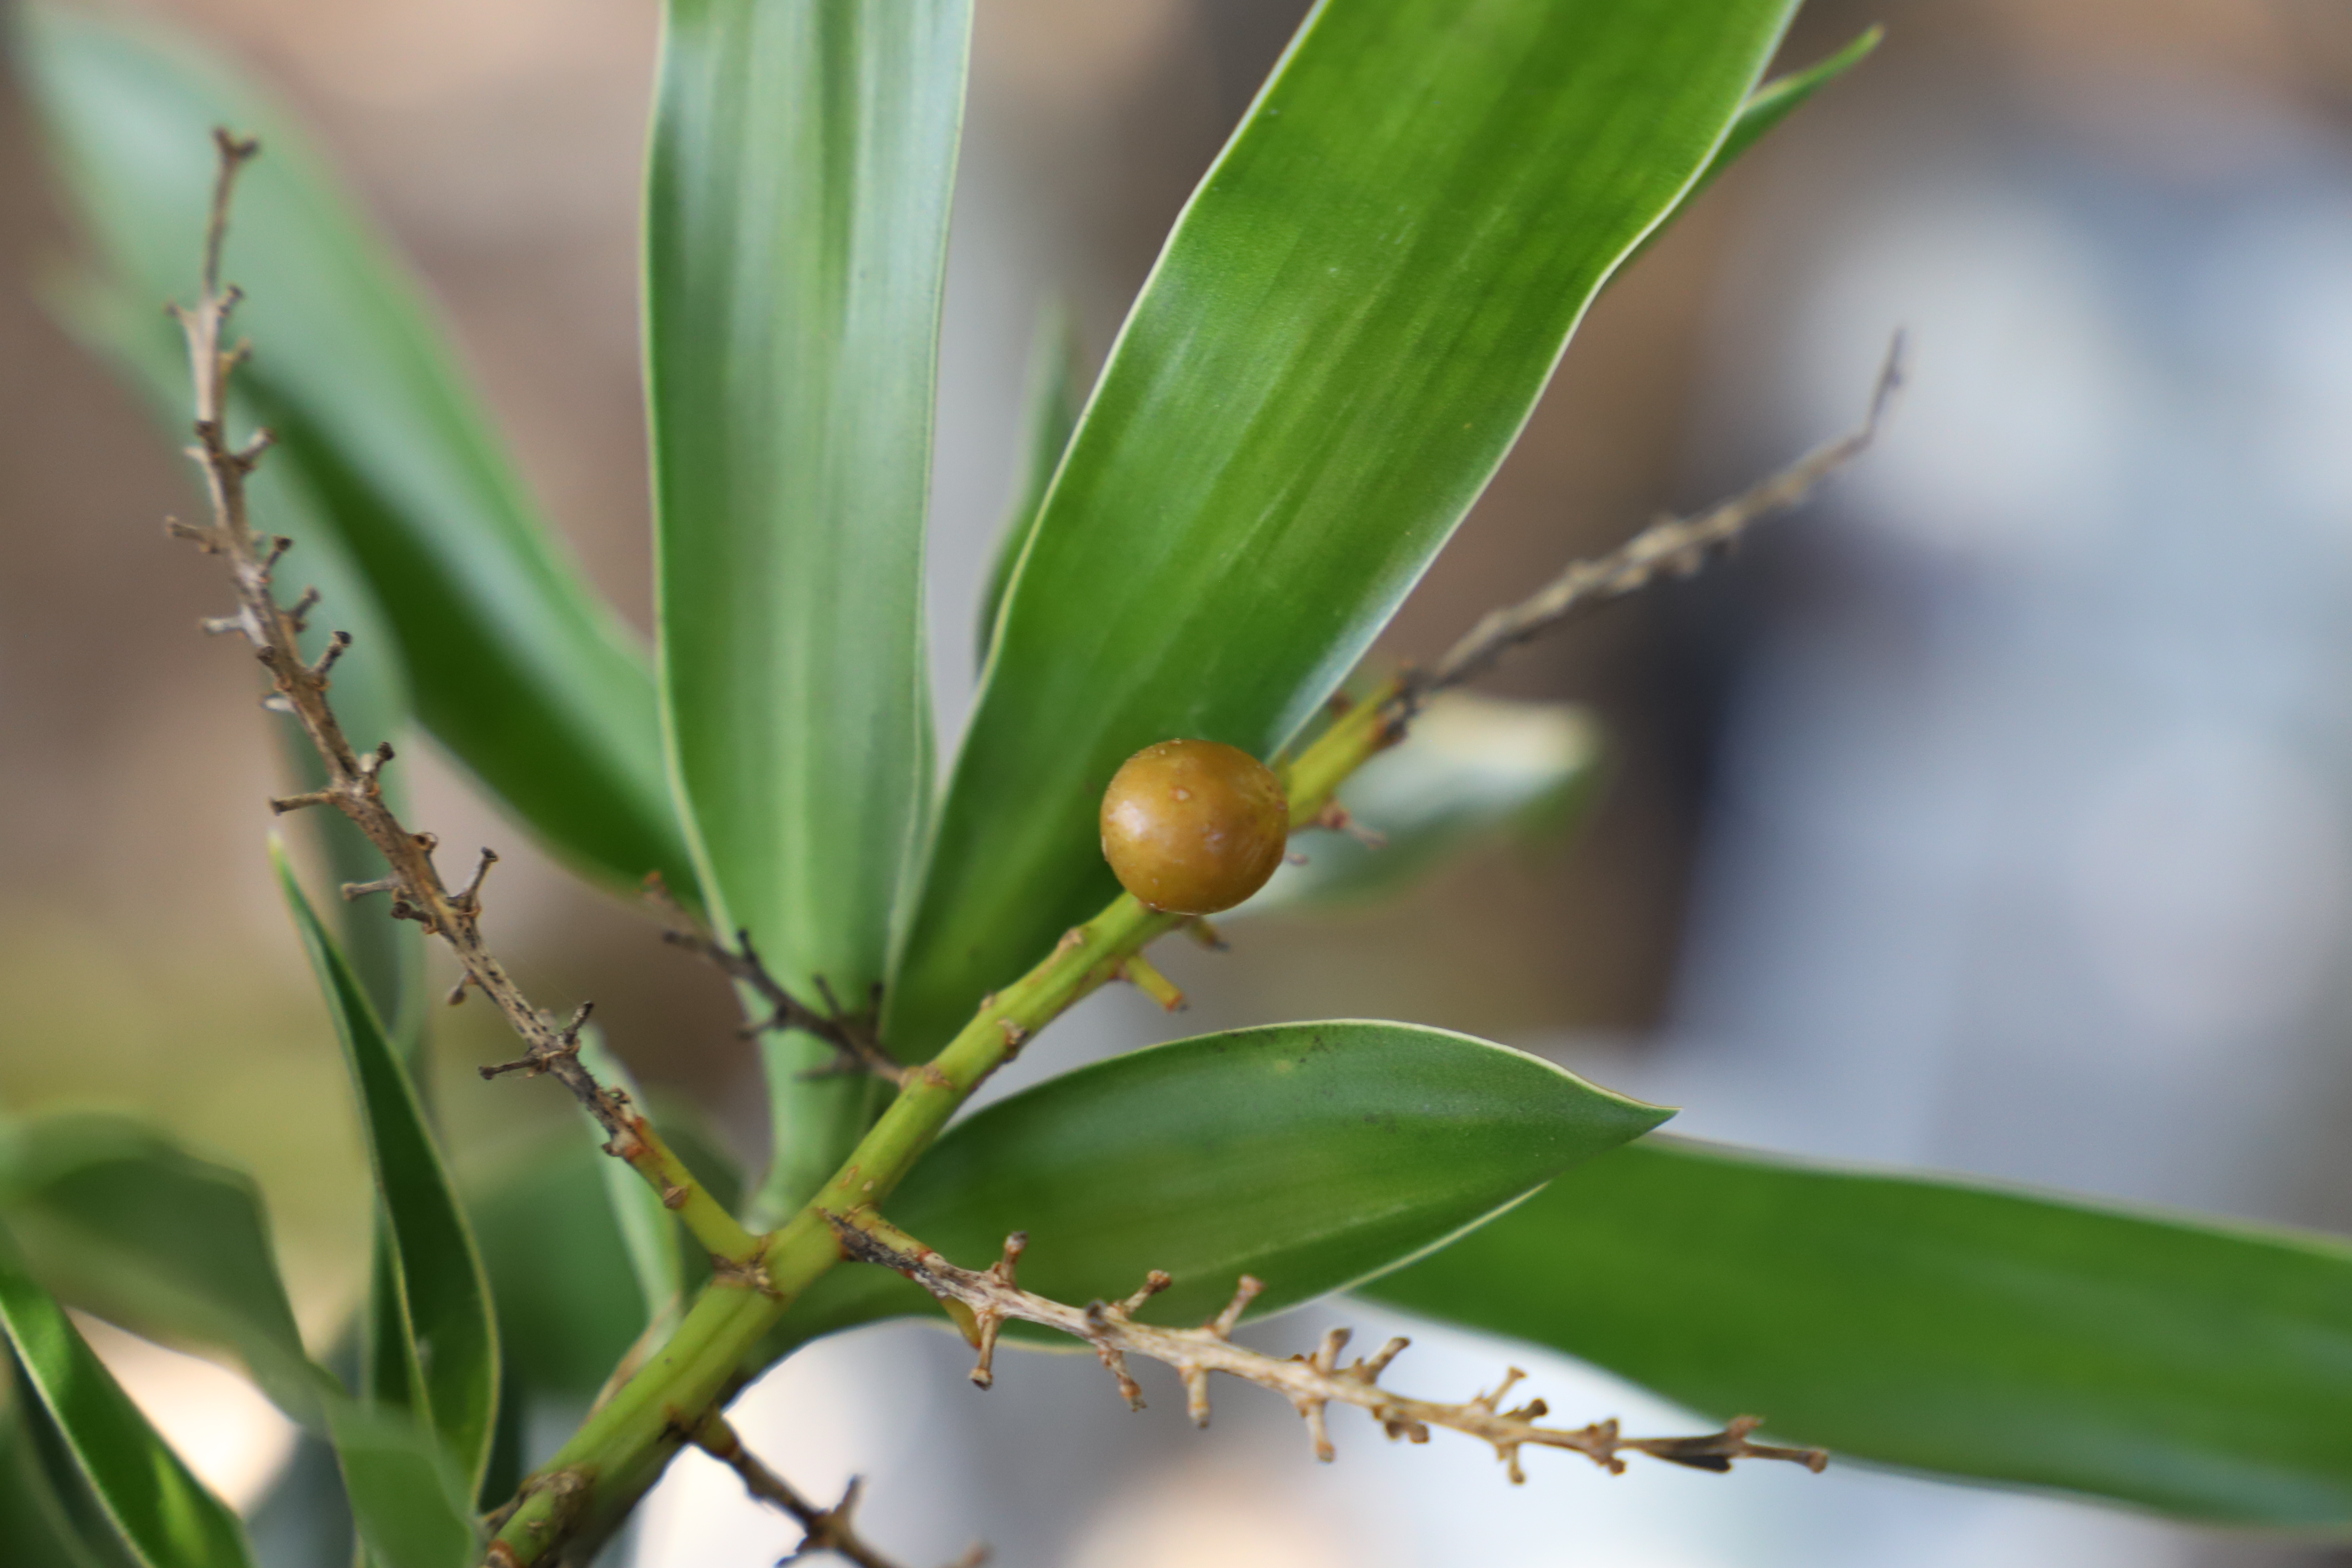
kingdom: Plantae
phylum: Tracheophyta
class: Liliopsida
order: Asparagales
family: Asparagaceae
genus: Dracaena
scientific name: Dracaena reflexa
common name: Bois Chandelle
